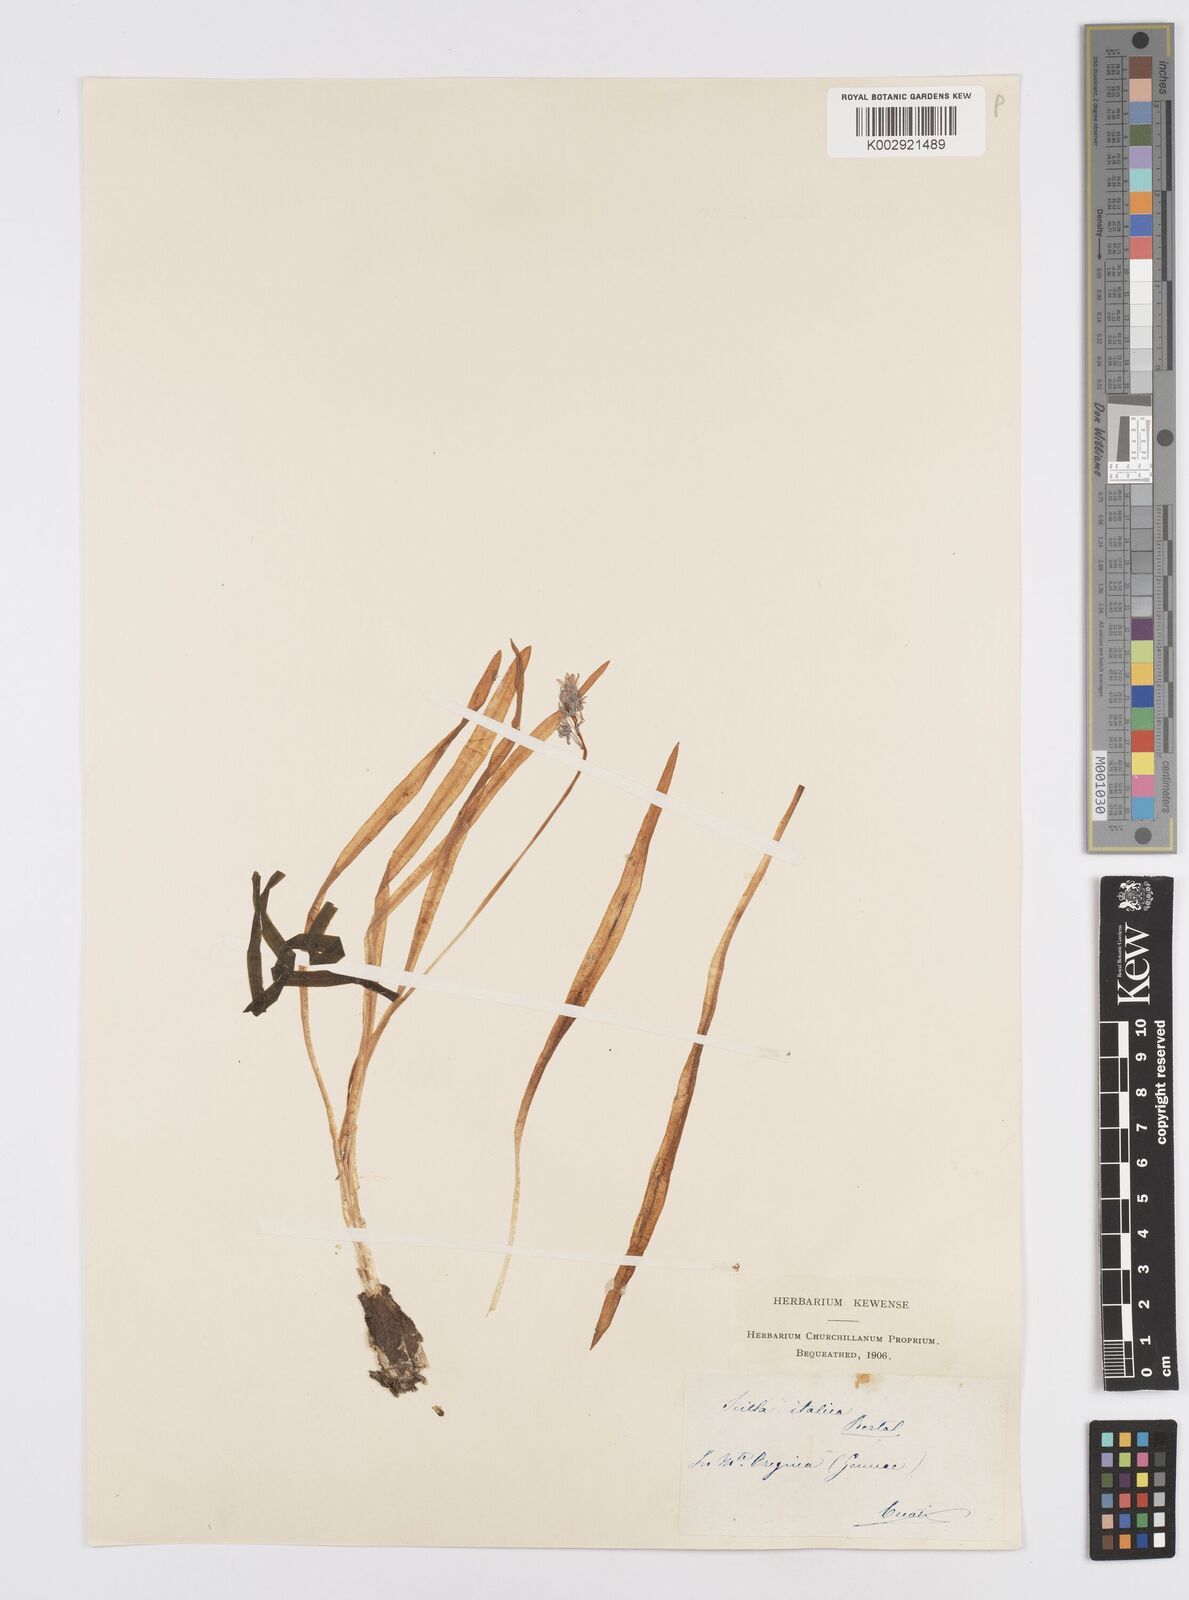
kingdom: Plantae
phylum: Tracheophyta
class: Liliopsida
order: Asparagales
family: Asparagaceae
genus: Hyacinthoides
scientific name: Hyacinthoides italica
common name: Italian bluebell
